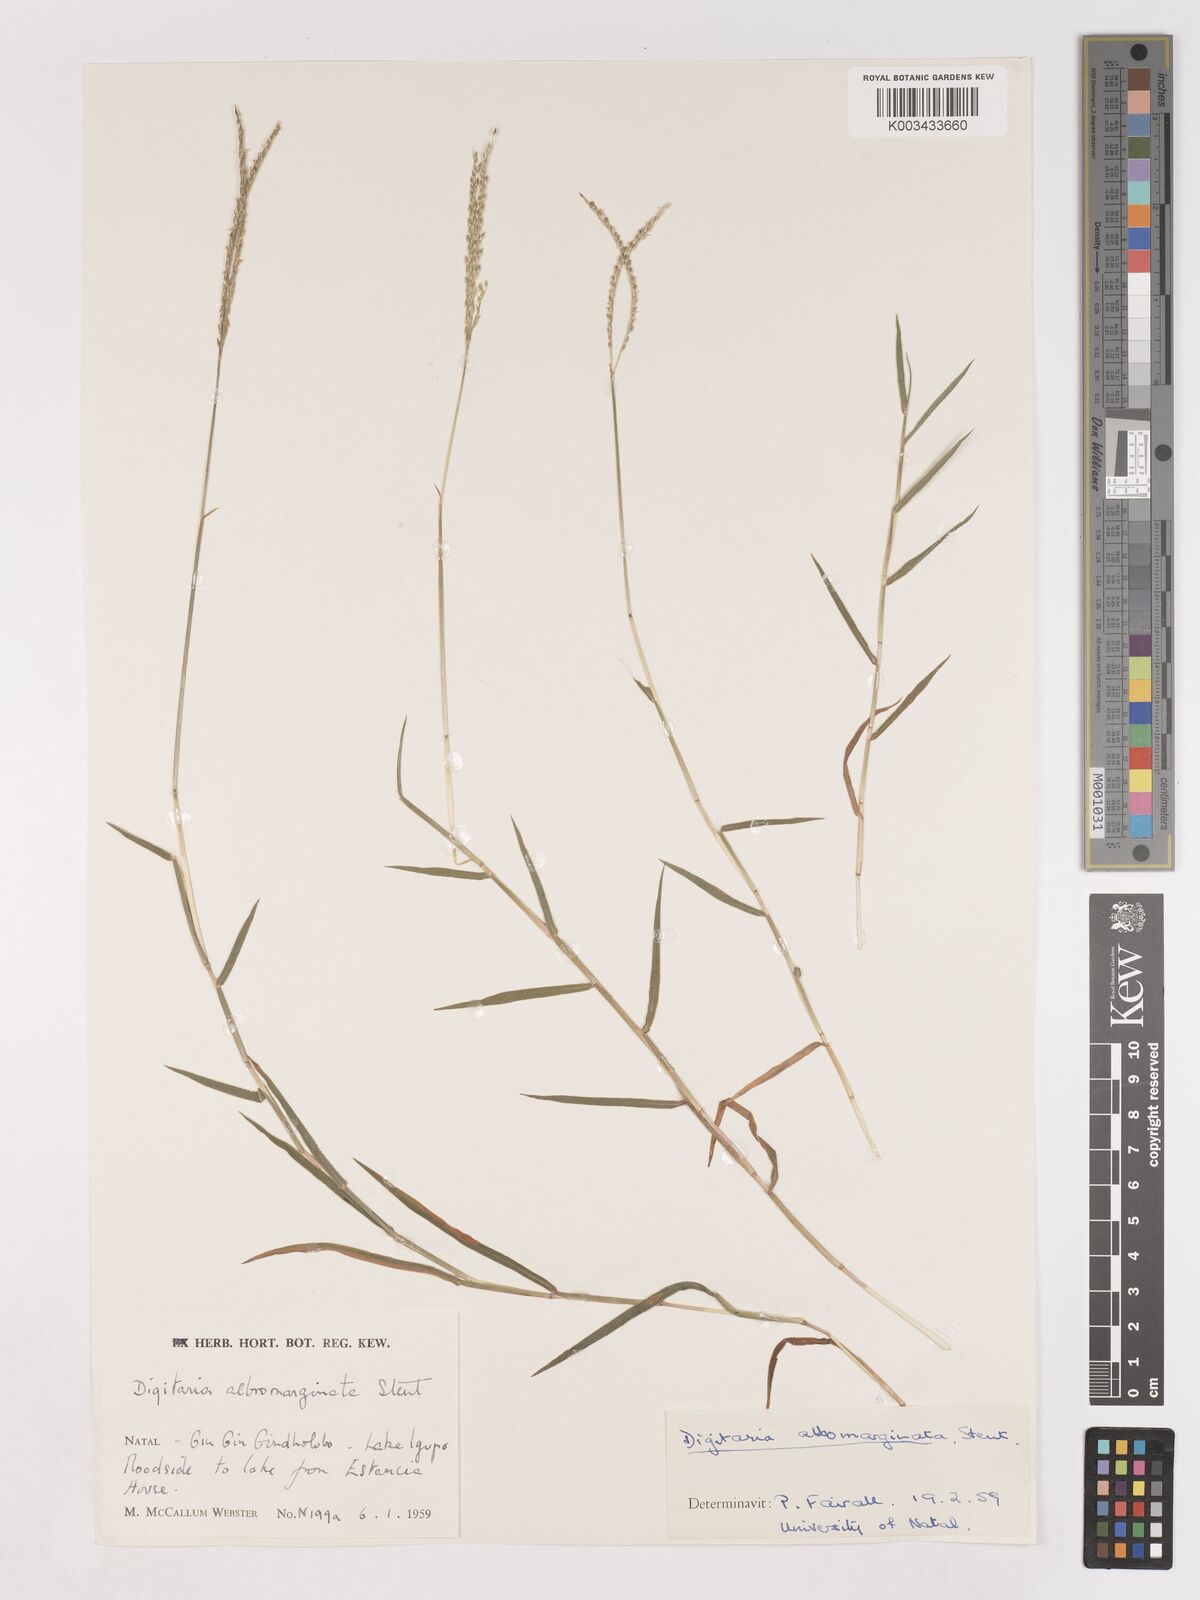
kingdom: Plantae
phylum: Tracheophyta
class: Liliopsida
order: Poales
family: Poaceae
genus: Digitaria
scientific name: Digitaria diversinervis
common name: Richmond finger grass
